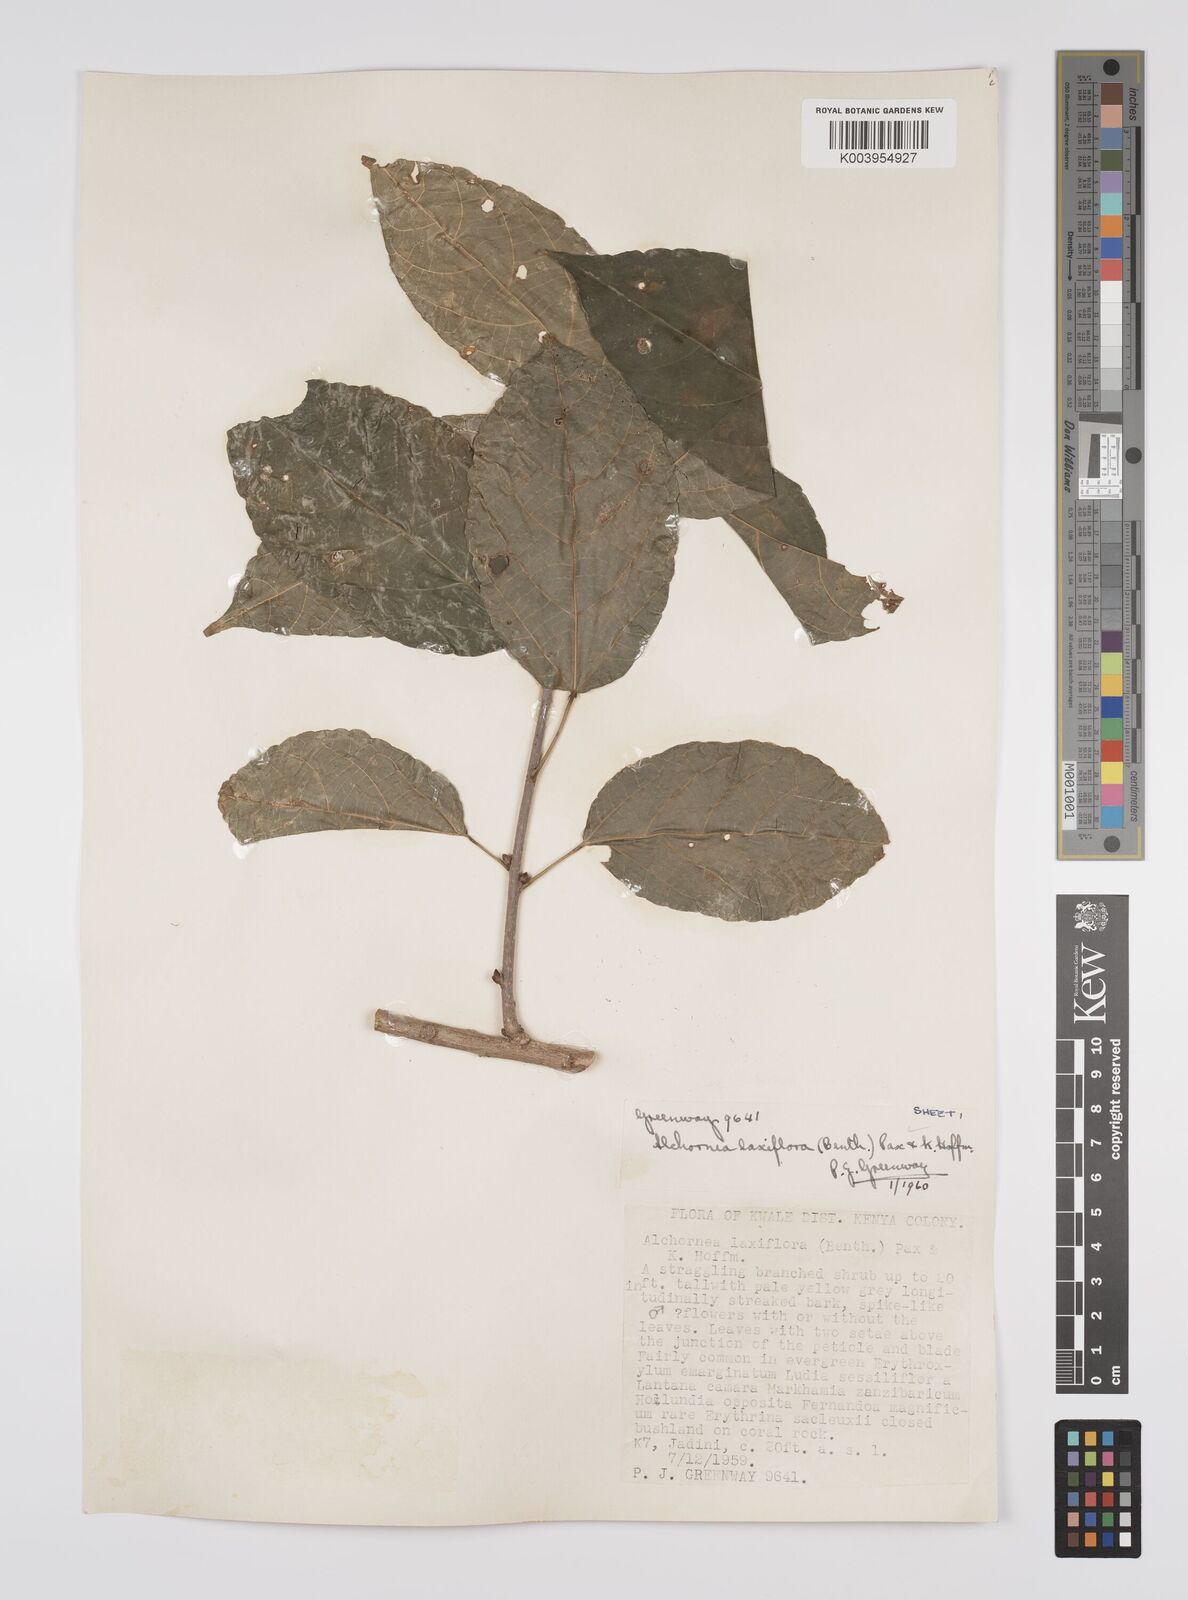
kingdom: Plantae
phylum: Tracheophyta
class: Magnoliopsida
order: Malpighiales
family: Euphorbiaceae
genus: Alchornea
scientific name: Alchornea laxiflora
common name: Lowveld bead-string
